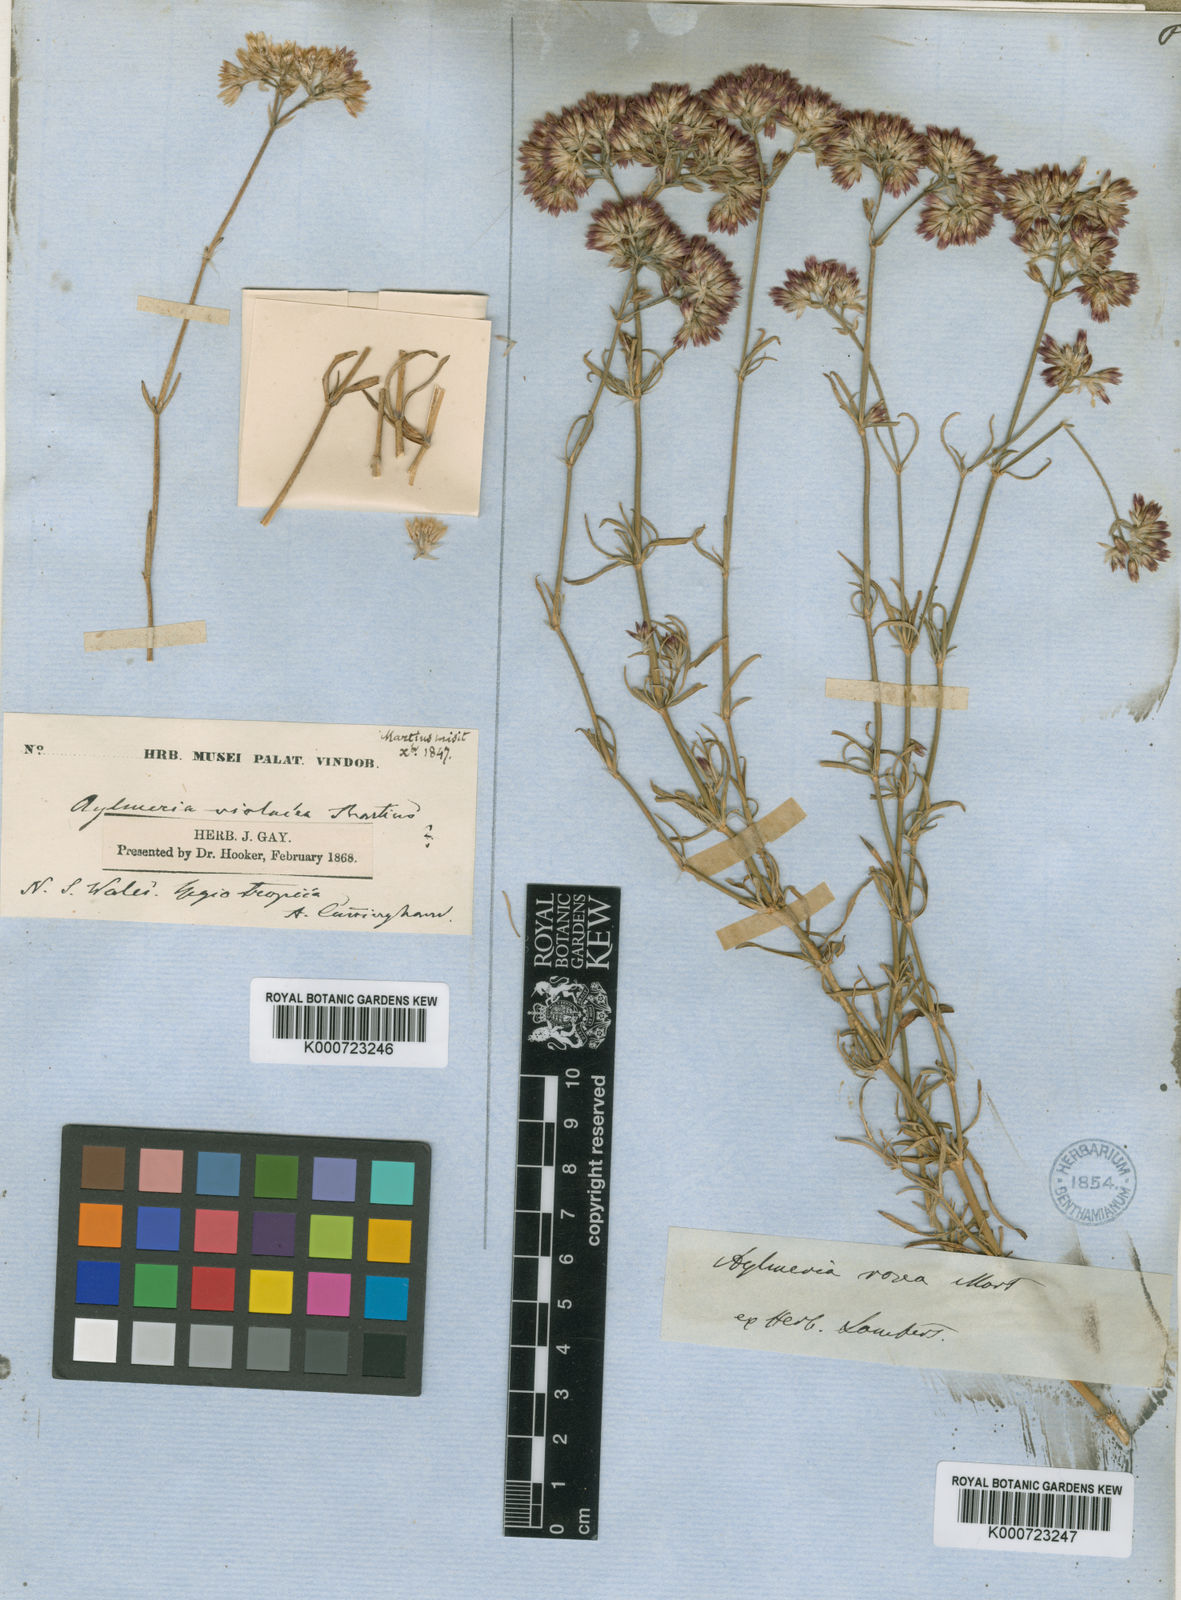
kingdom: Plantae
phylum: Tracheophyta
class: Magnoliopsida
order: Caryophyllales
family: Caryophyllaceae
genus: Polycarpaea
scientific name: Polycarpaea violacea
